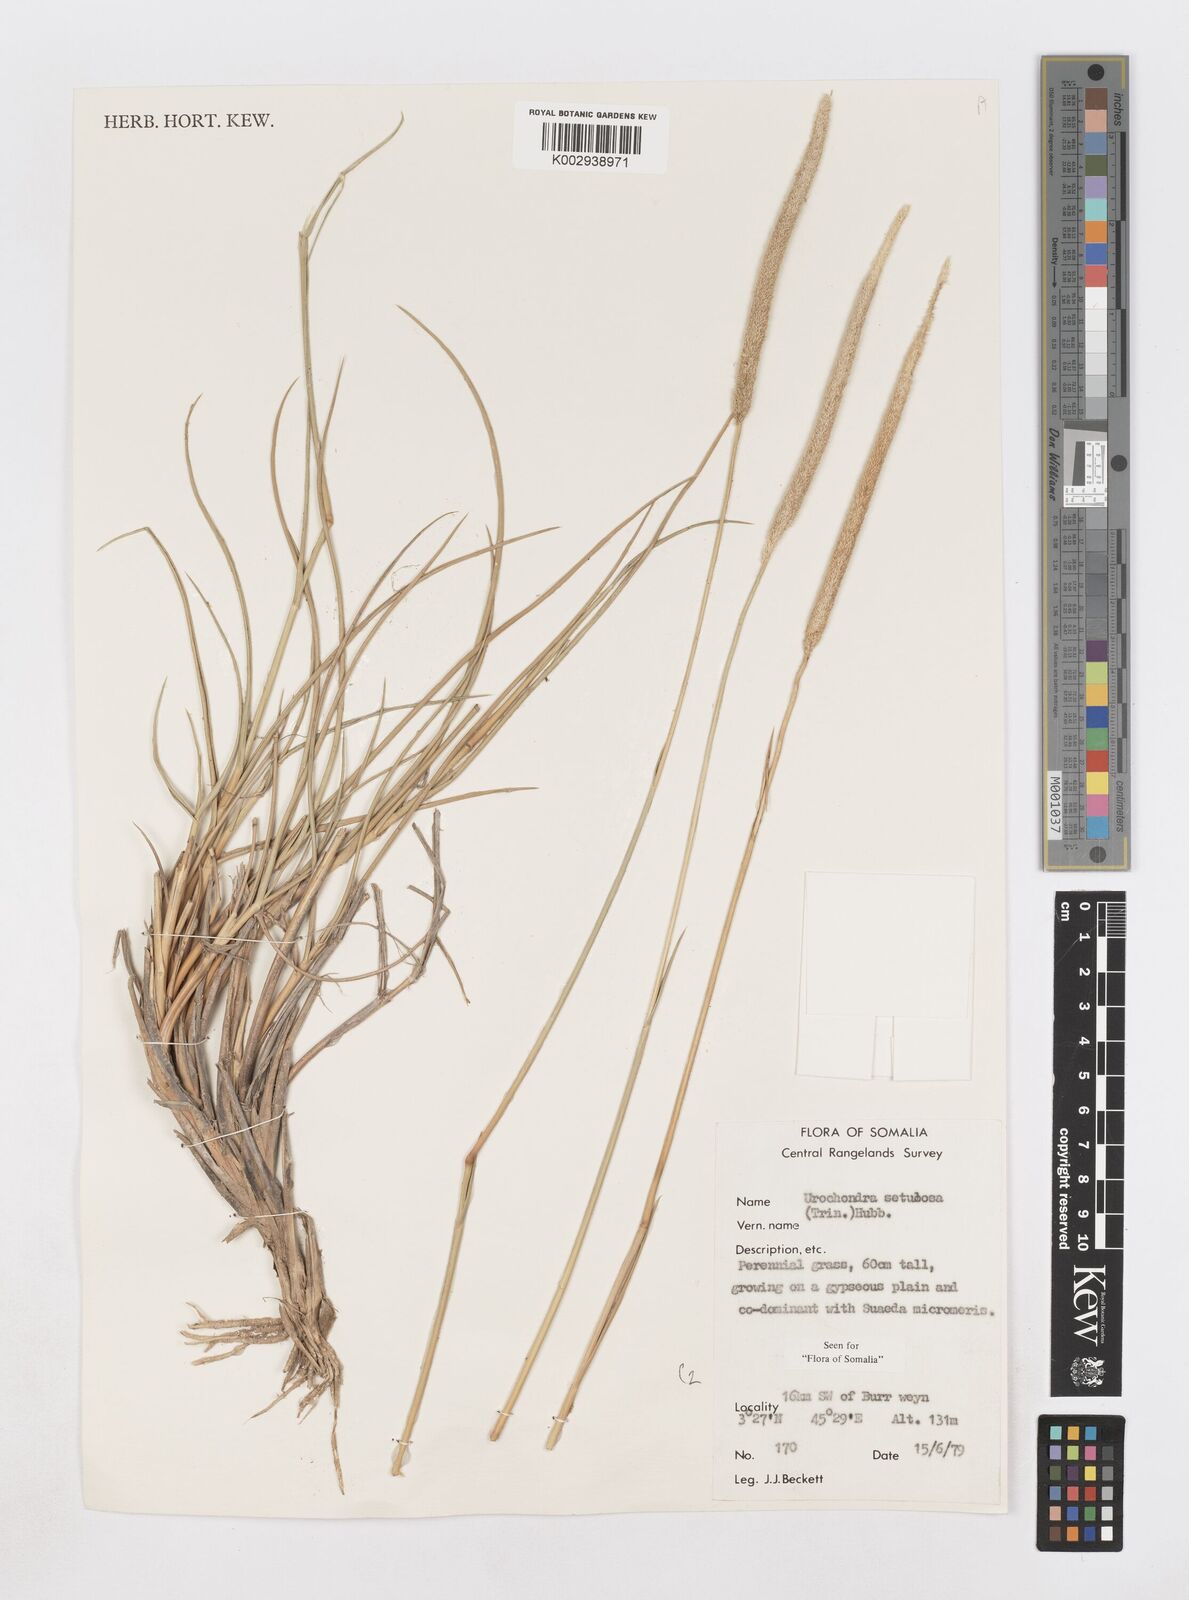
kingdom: Plantae
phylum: Tracheophyta
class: Liliopsida
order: Poales
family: Poaceae
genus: Urochondra
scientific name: Urochondra setulosa
